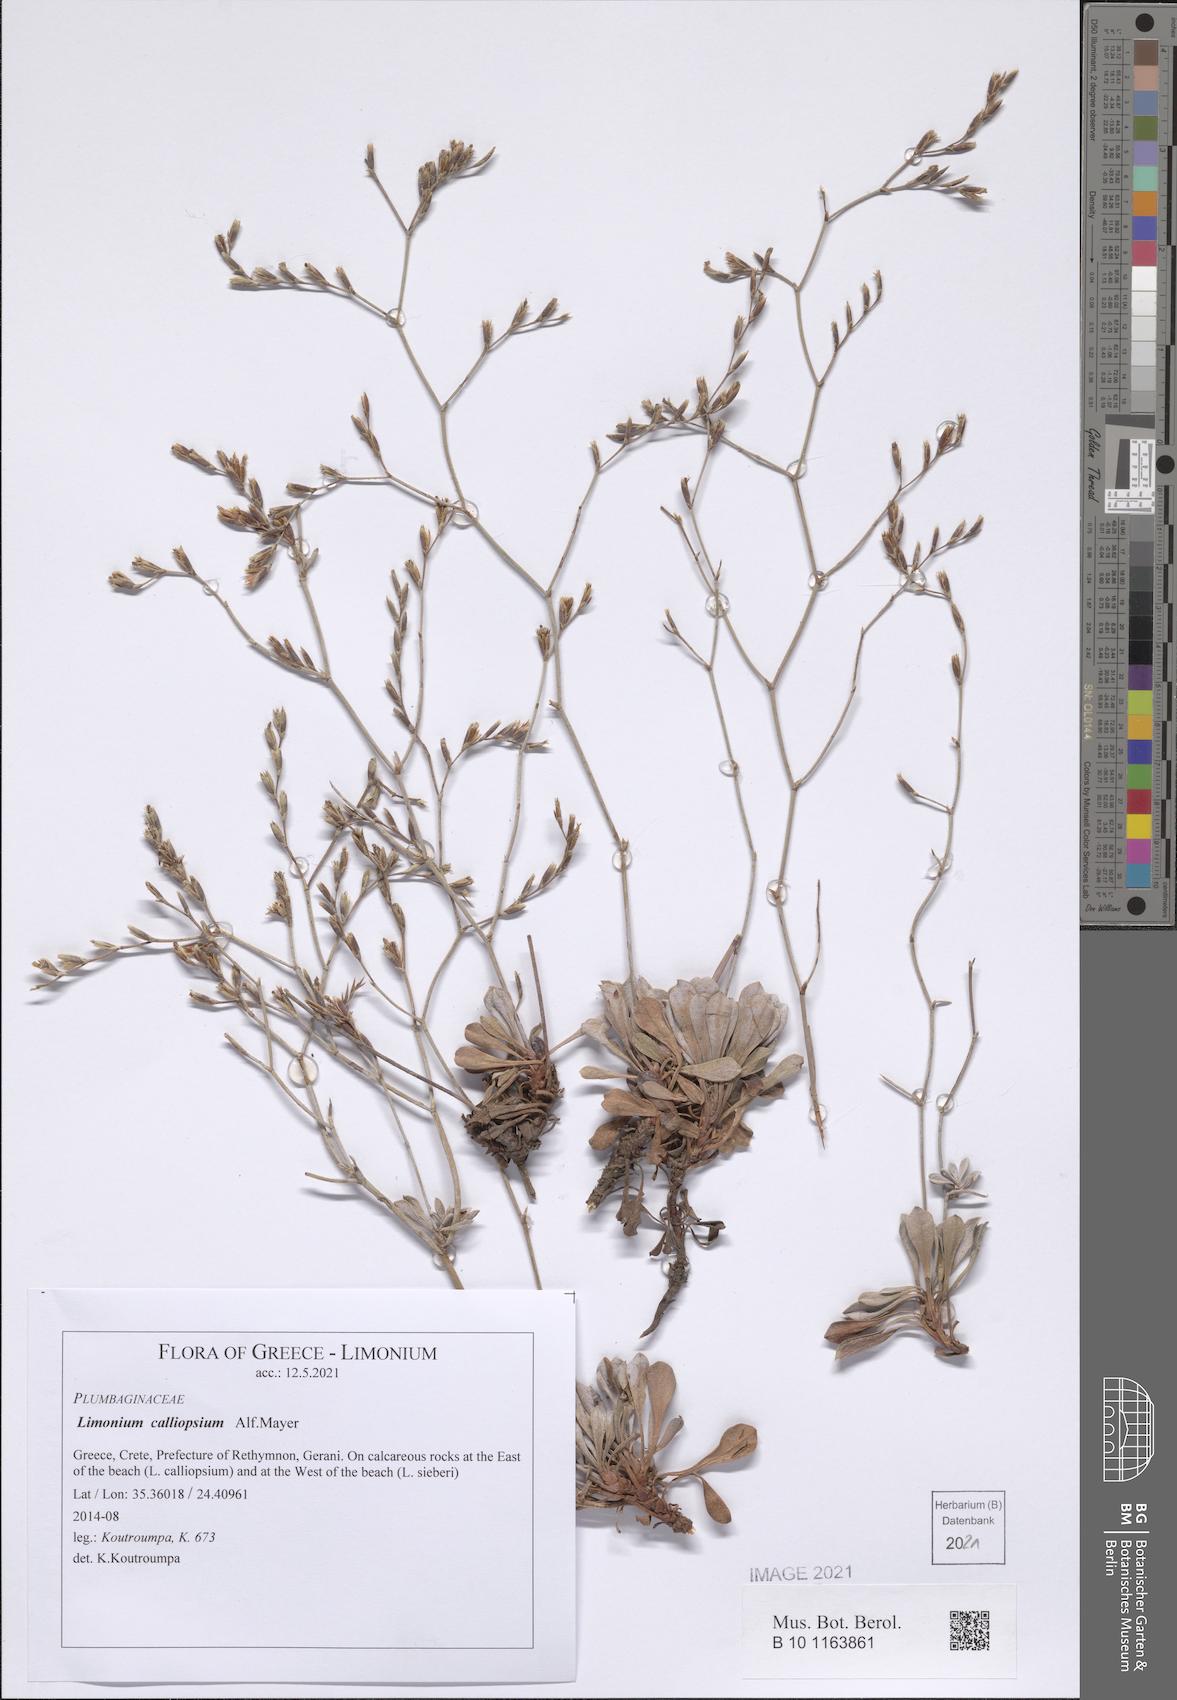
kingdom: Plantae
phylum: Tracheophyta
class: Magnoliopsida
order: Caryophyllales
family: Plumbaginaceae
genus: Limonium
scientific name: Limonium calliopsium
